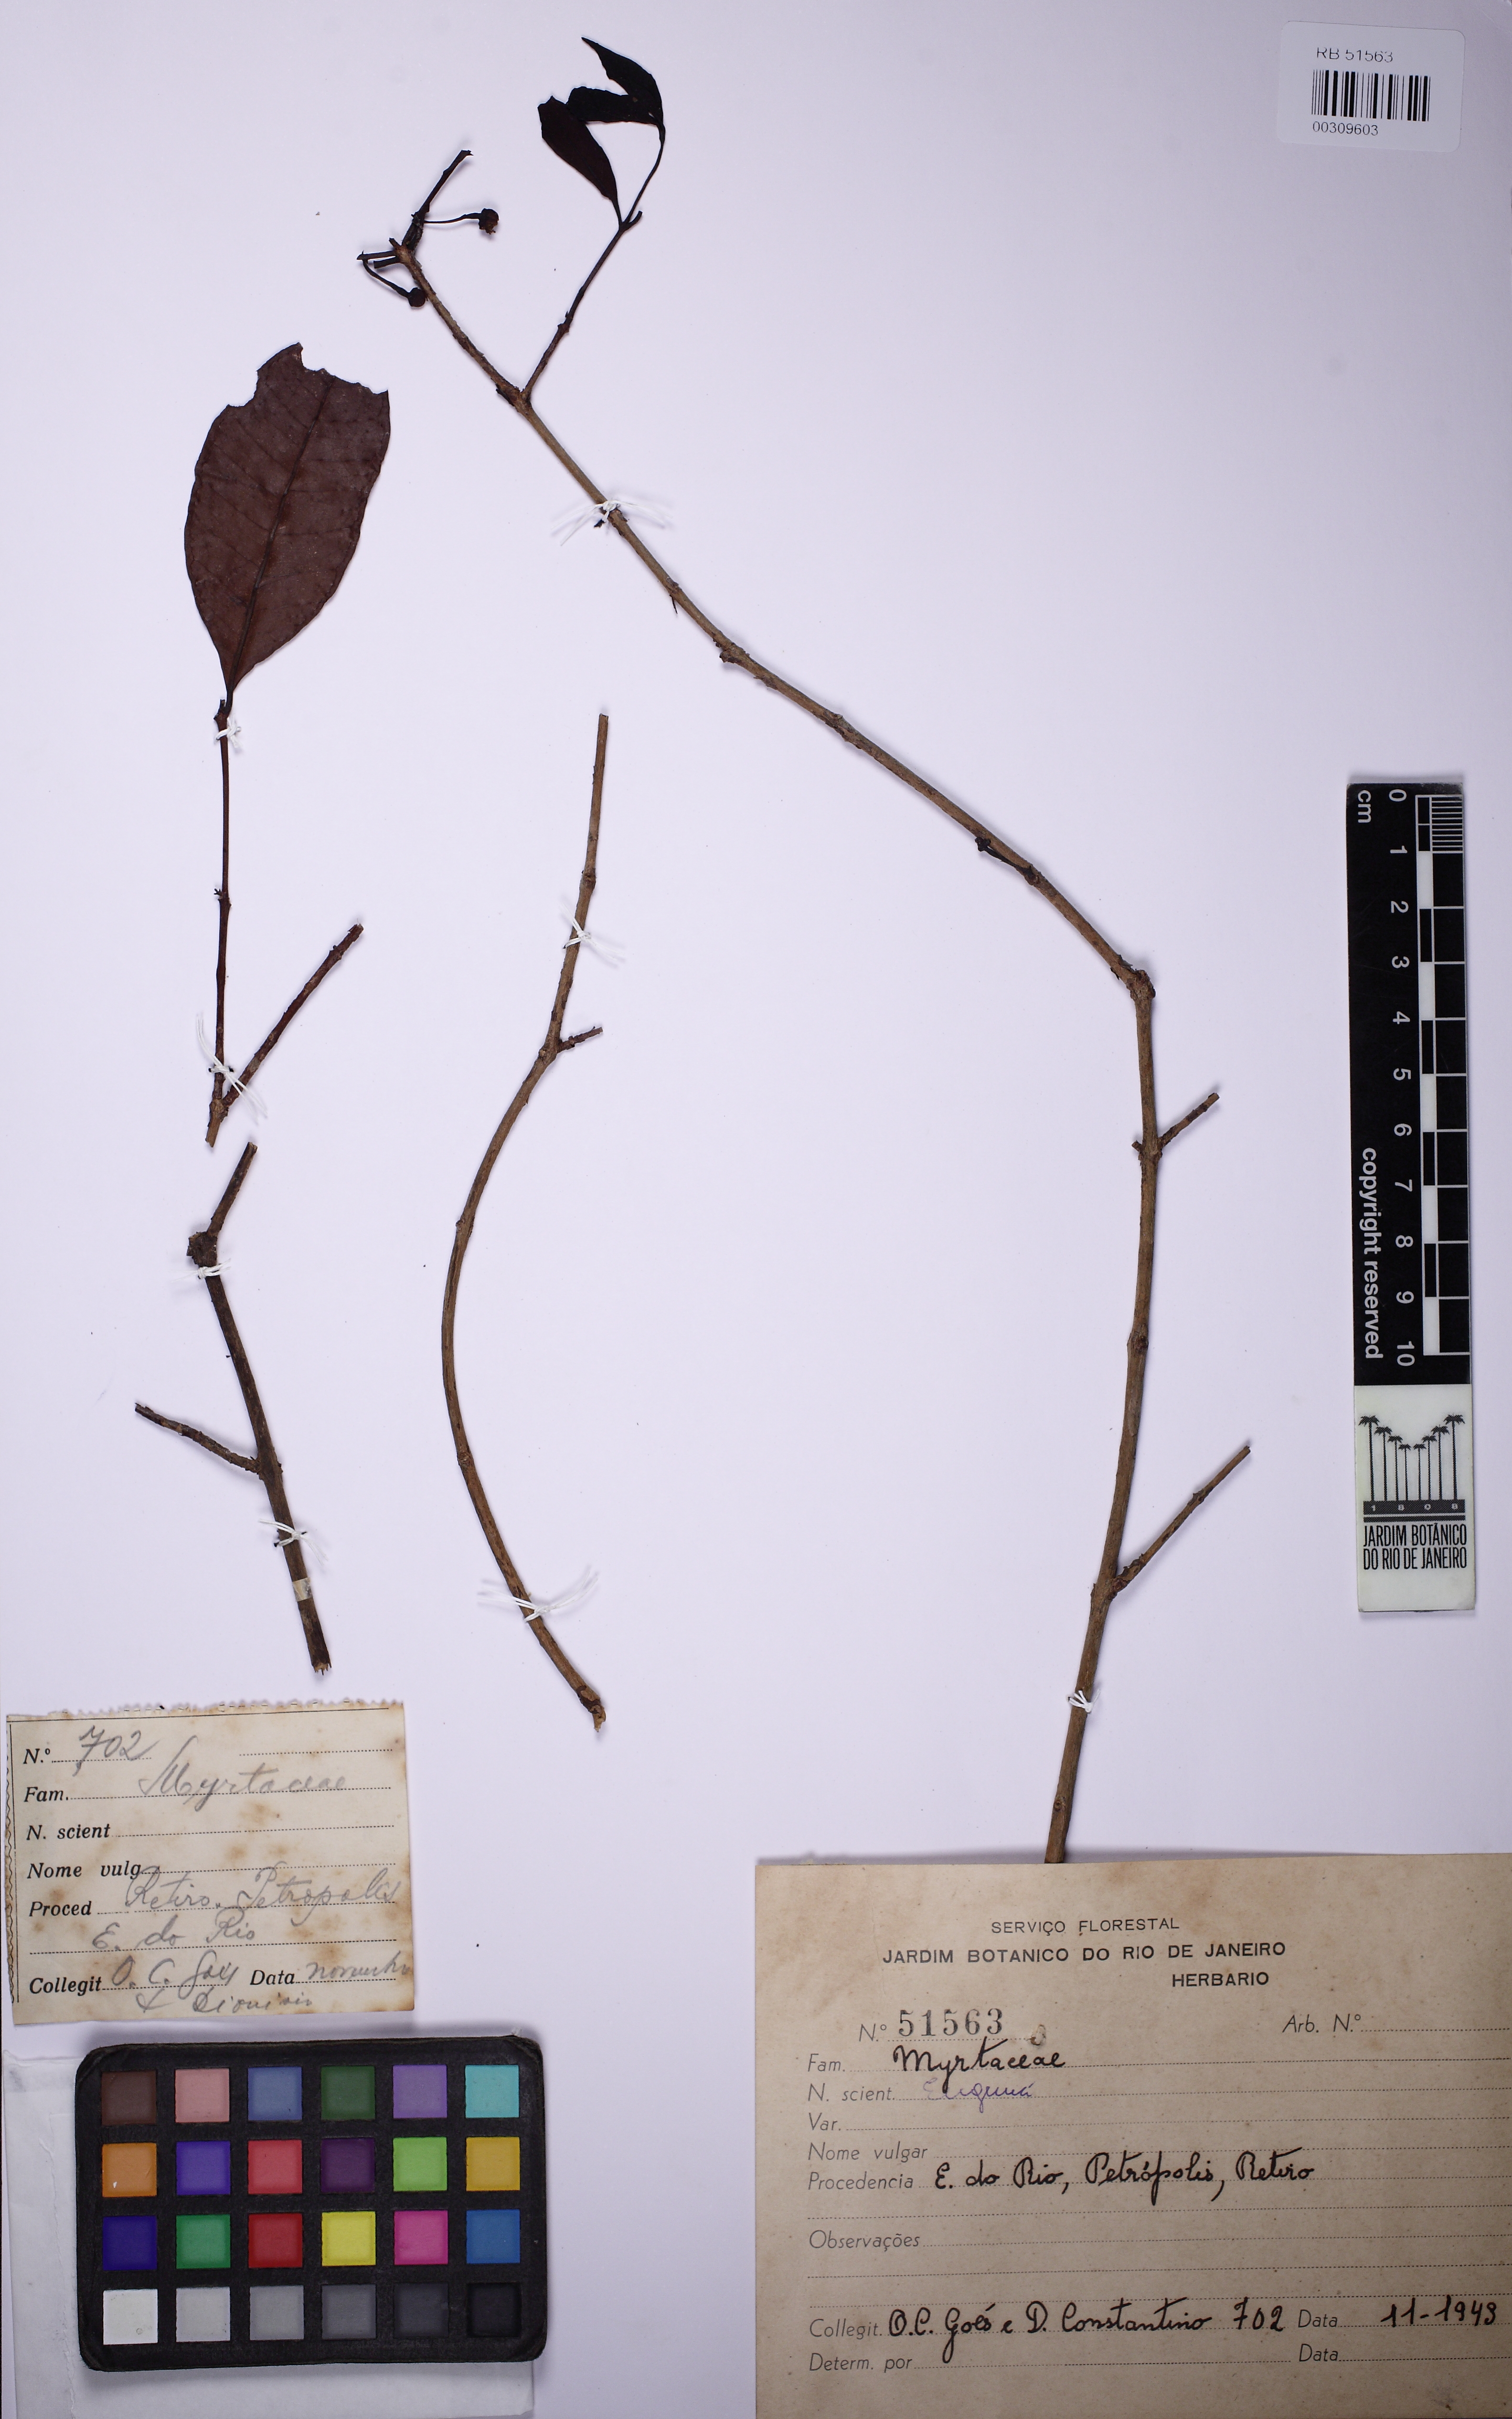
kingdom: Plantae
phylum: Tracheophyta
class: Magnoliopsida
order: Myrtales
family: Myrtaceae
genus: Psidium
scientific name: Psidium myrtoides
